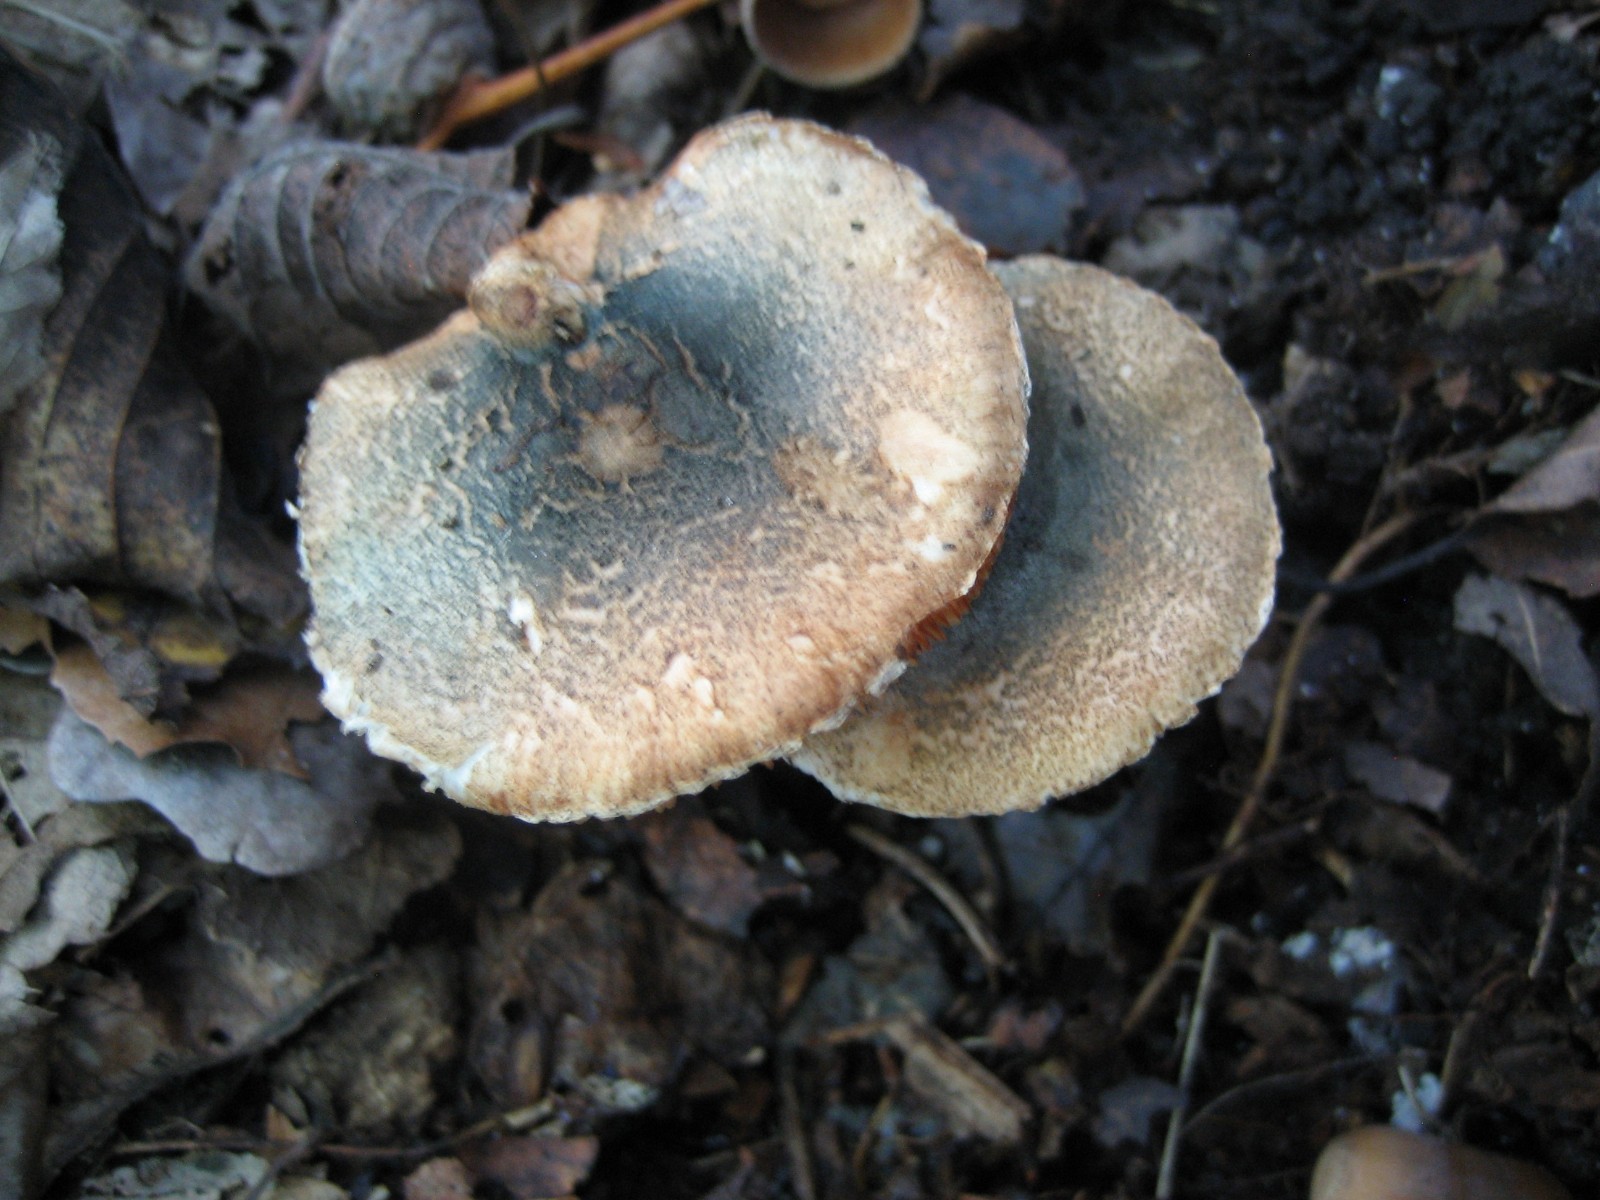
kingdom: Fungi
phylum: Basidiomycota
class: Agaricomycetes
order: Agaricales
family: Agaricaceae
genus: Lepiota
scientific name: Lepiota grangei
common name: grønskællet parasolhat
